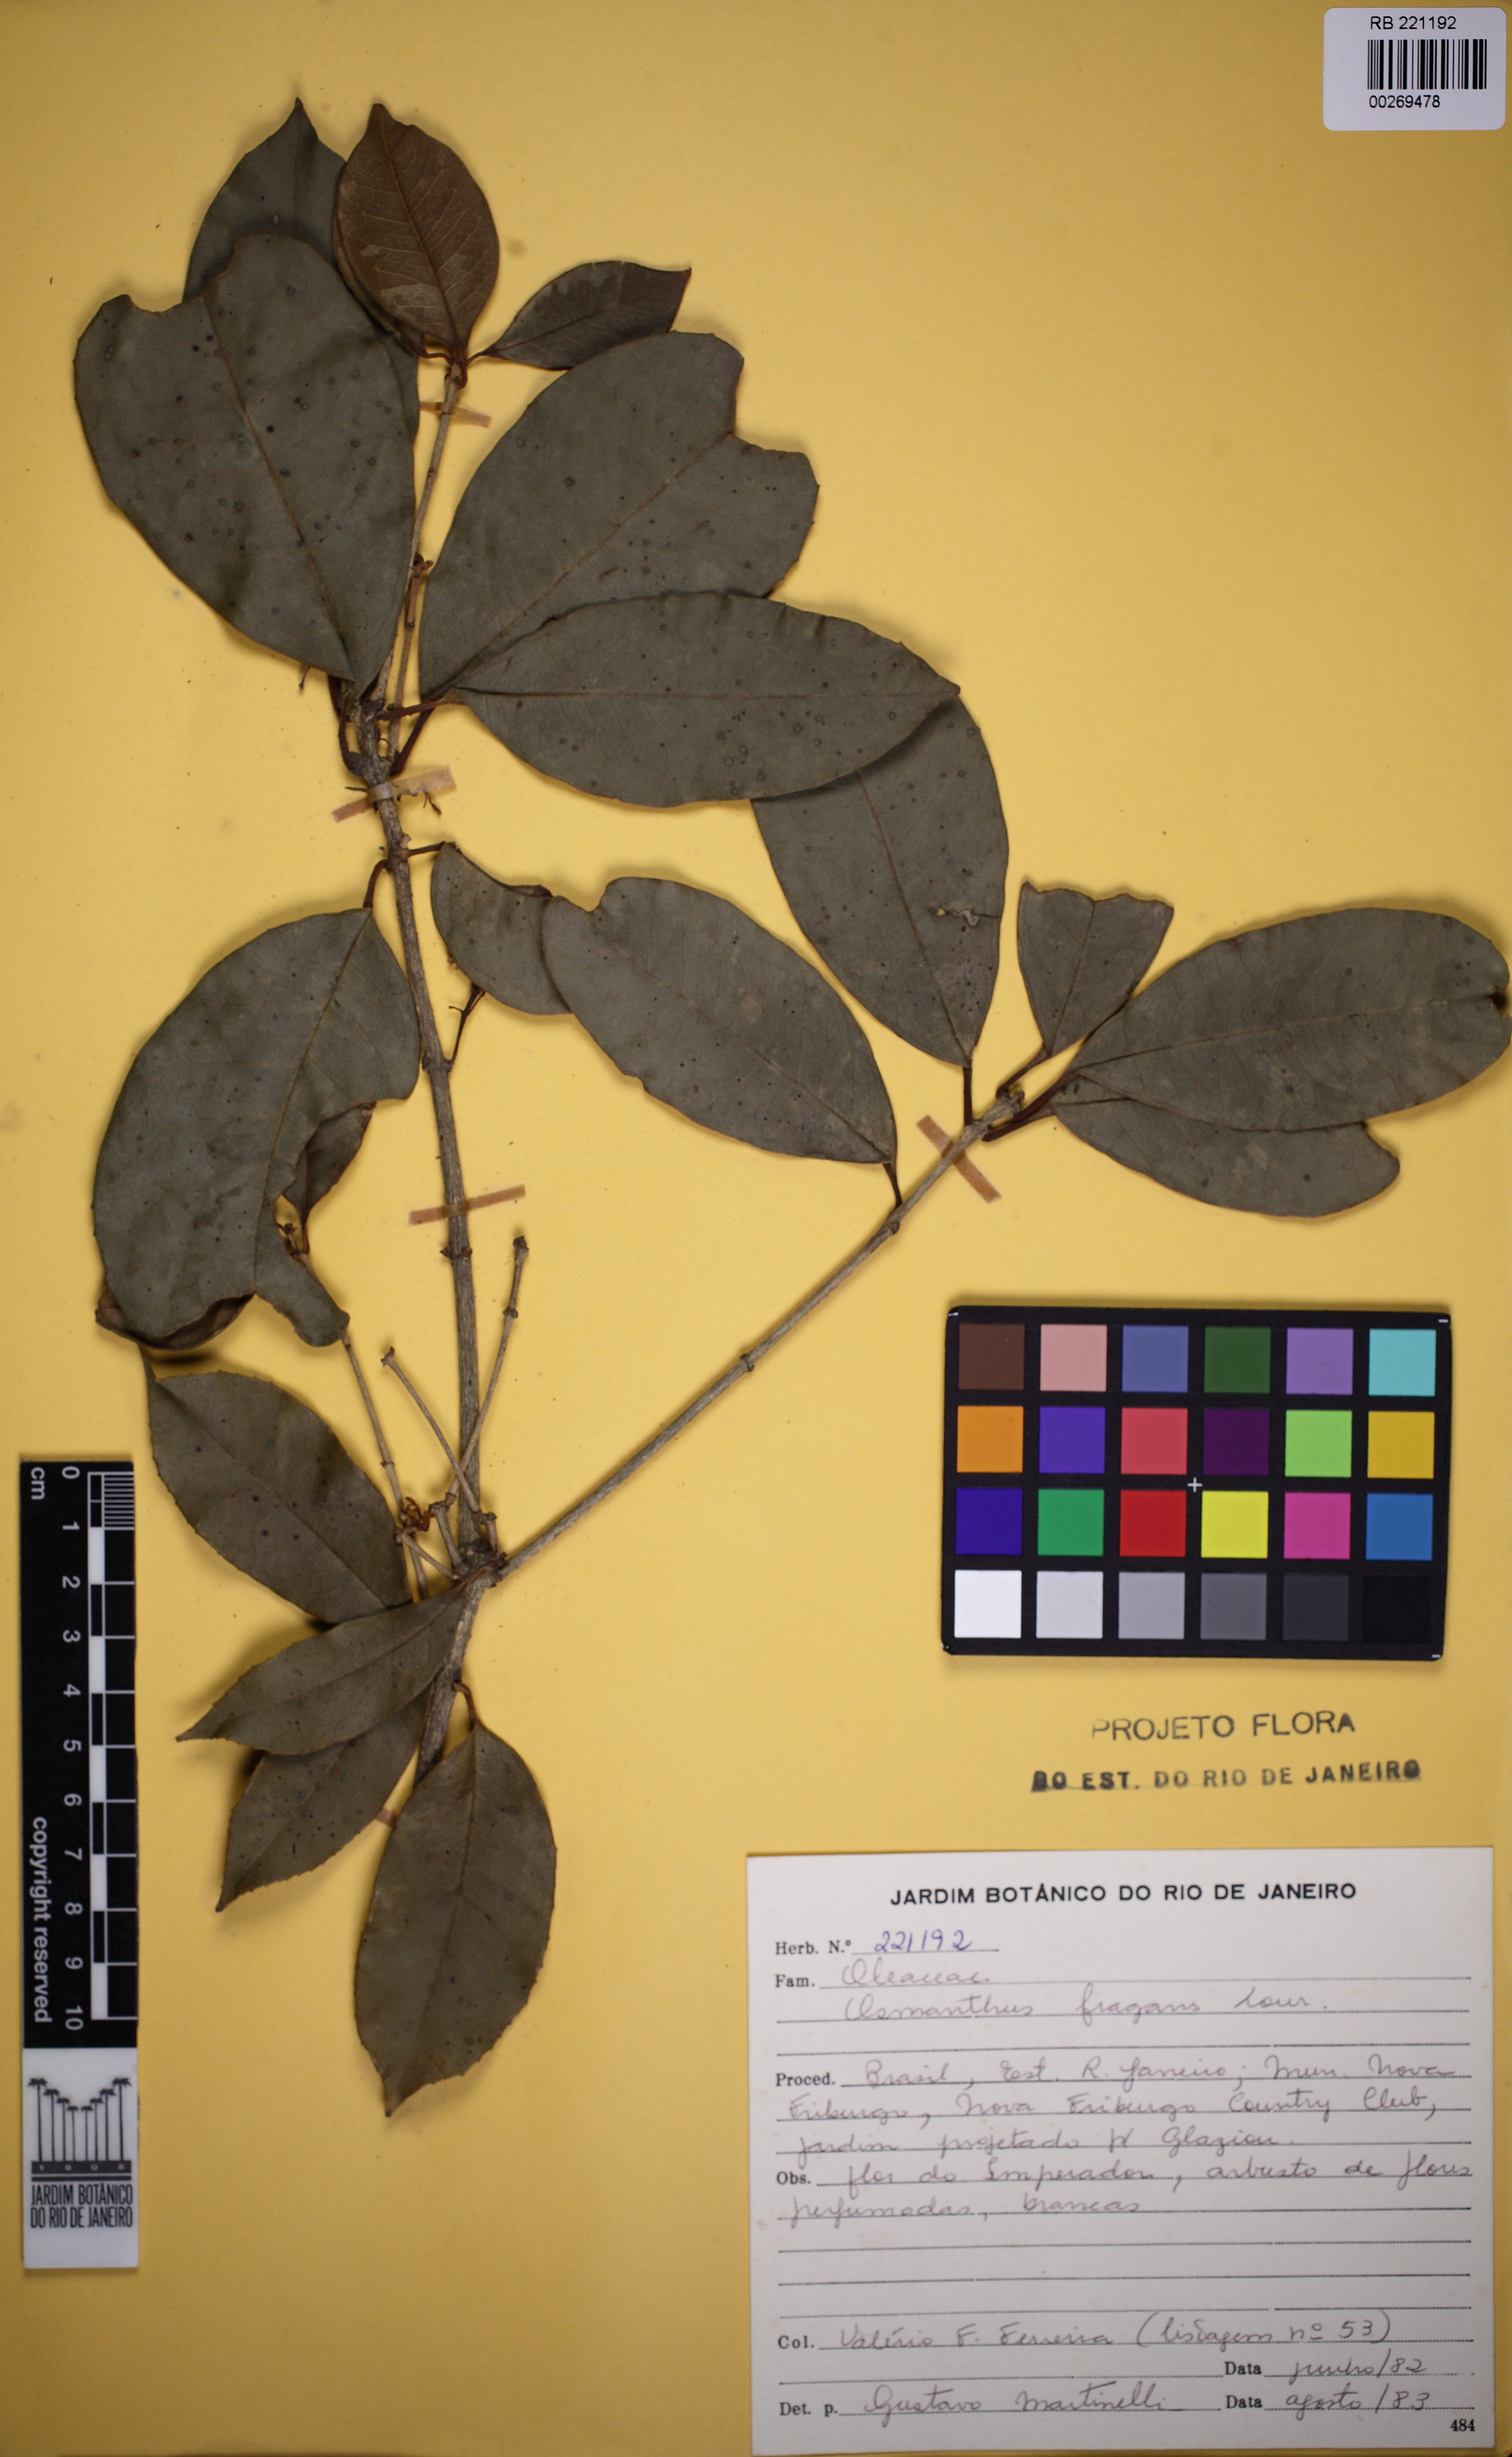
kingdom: Plantae
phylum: Tracheophyta
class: Magnoliopsida
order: Lamiales
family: Oleaceae
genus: Osmanthus
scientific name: Osmanthus fragrans
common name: Sweet osmanthus
